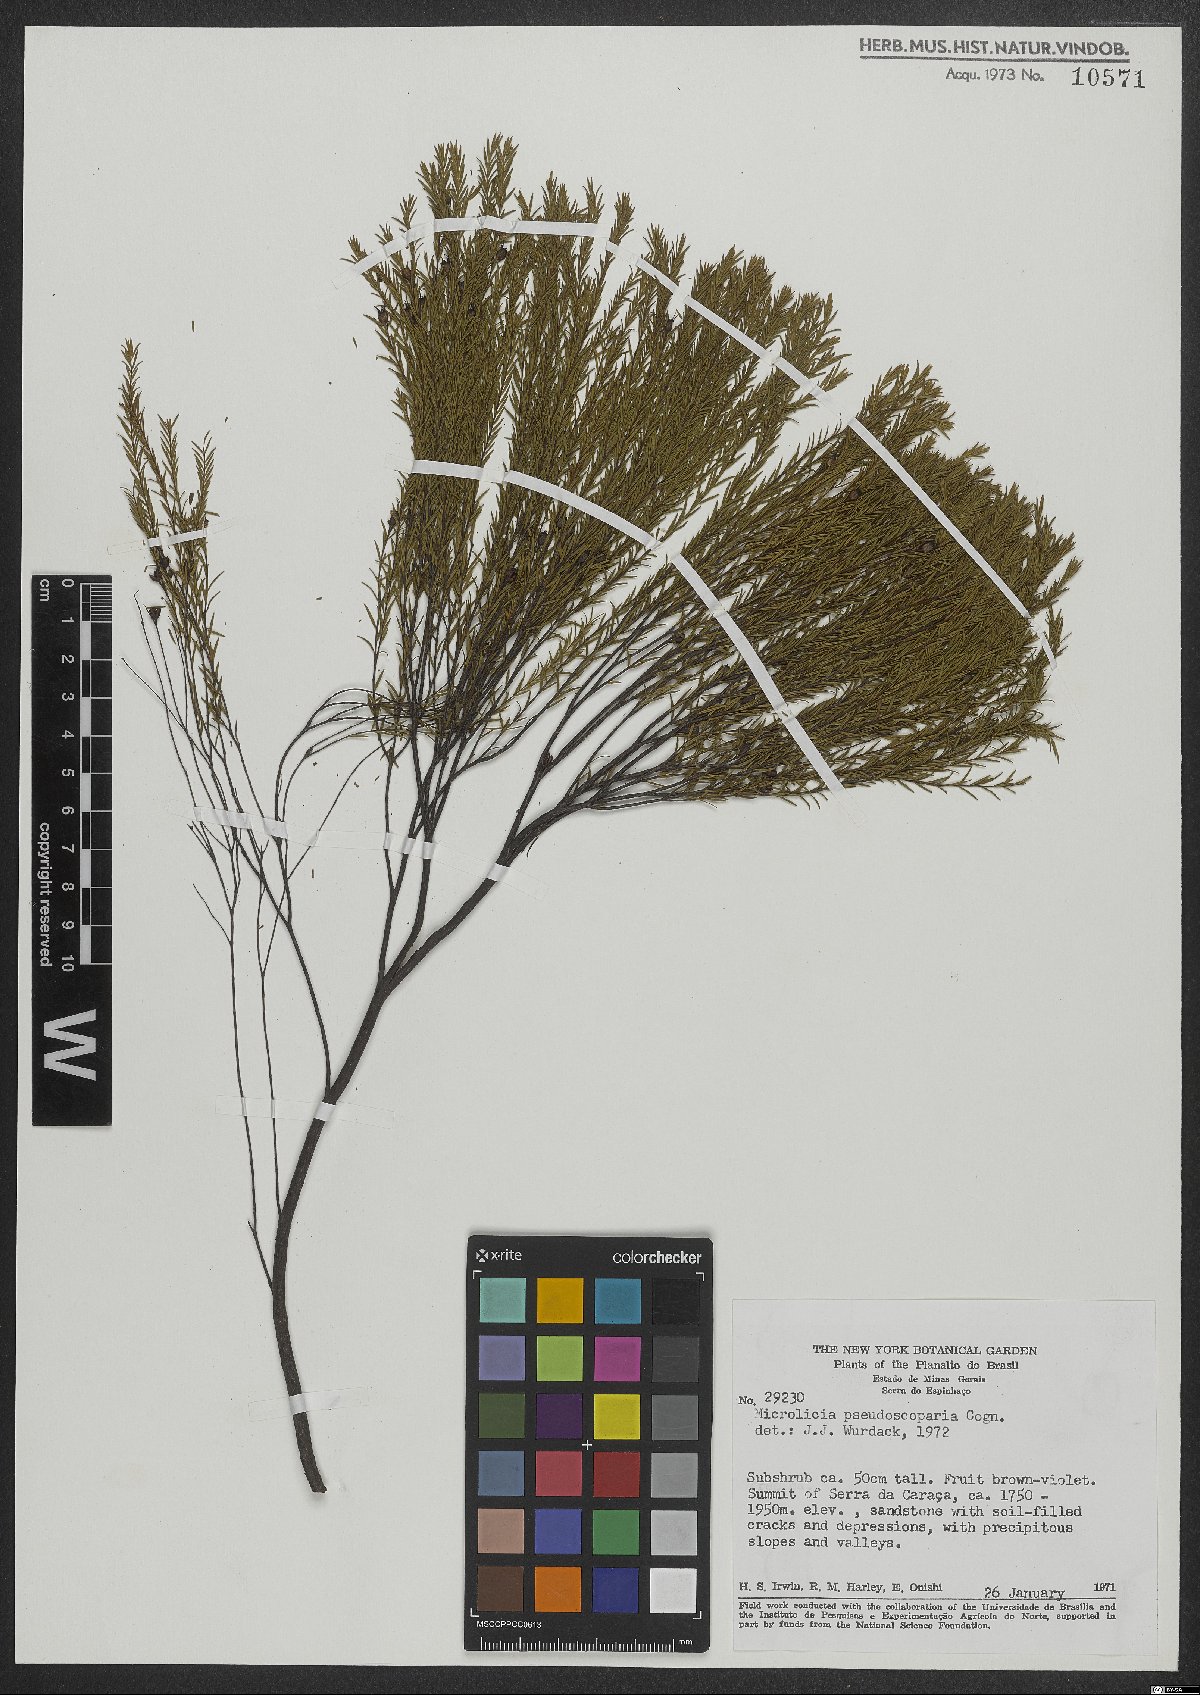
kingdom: Plantae
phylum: Tracheophyta
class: Magnoliopsida
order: Myrtales
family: Melastomataceae
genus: Microlicia
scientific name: Microlicia pseudoscoparia
